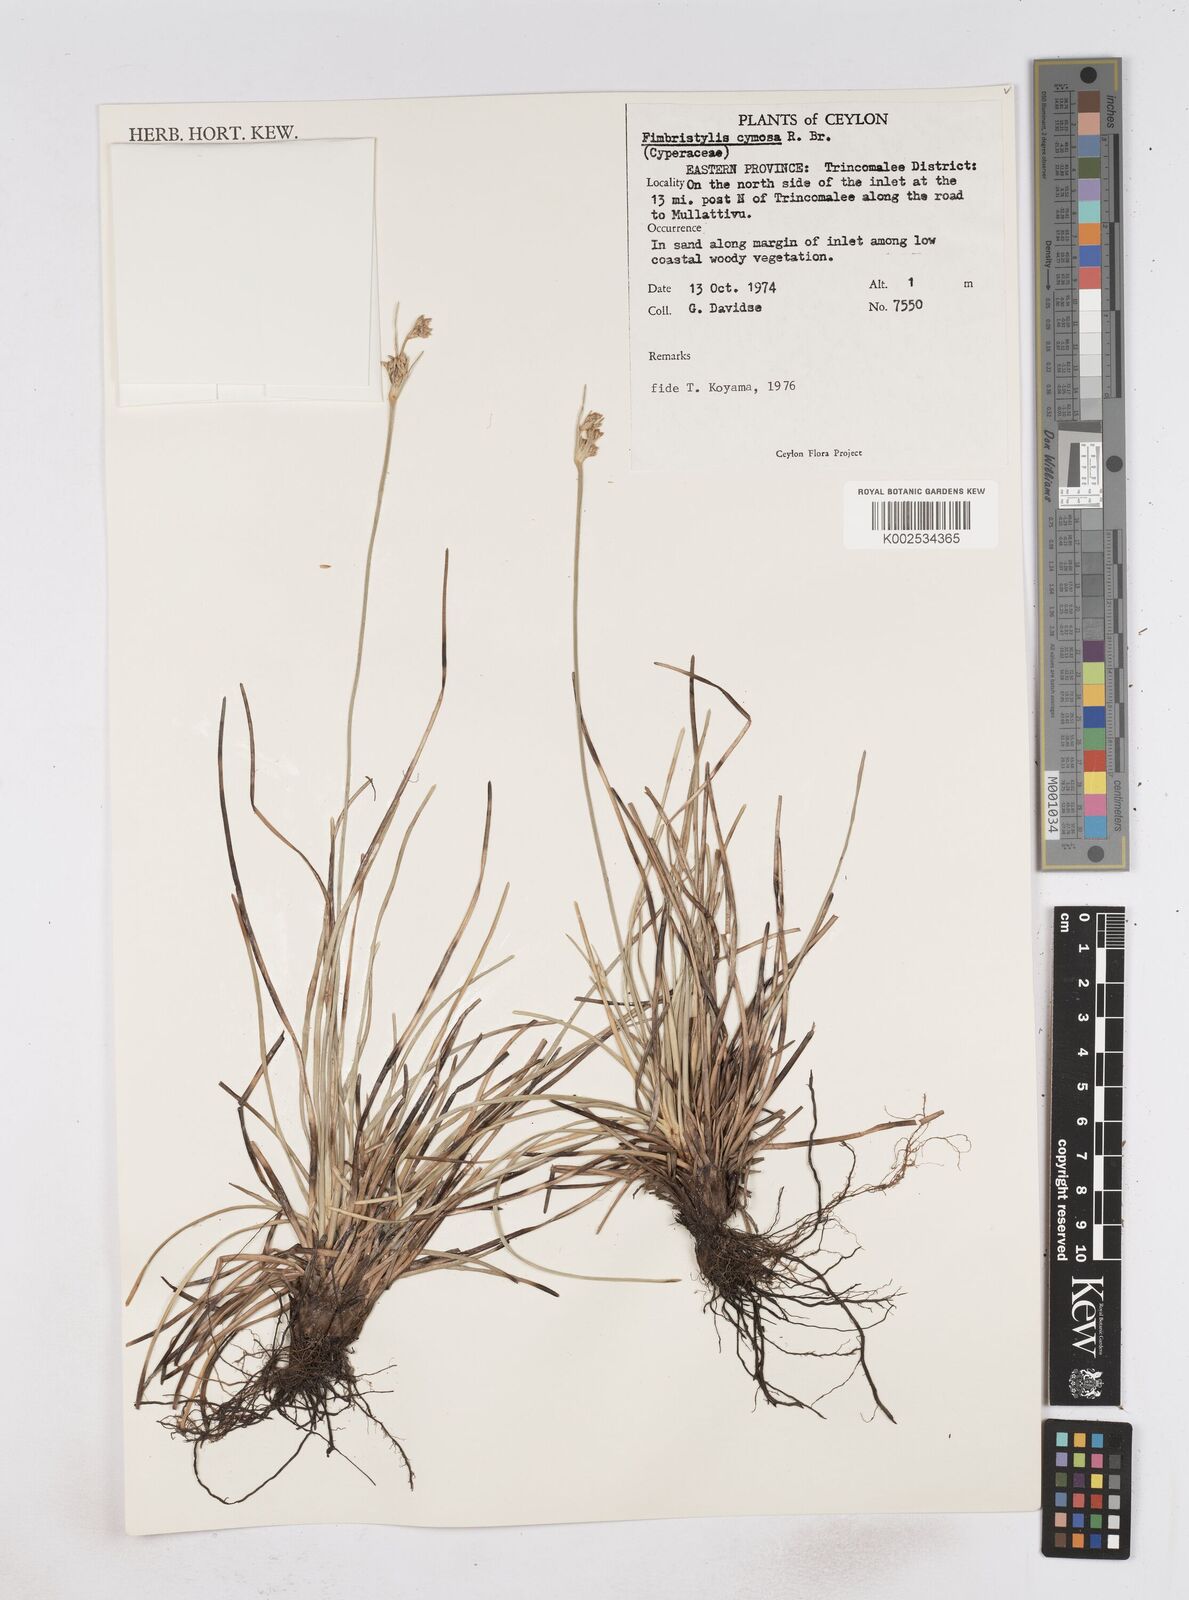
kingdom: Plantae
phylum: Tracheophyta
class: Liliopsida
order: Poales
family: Cyperaceae
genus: Fimbristylis
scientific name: Fimbristylis cymosa
